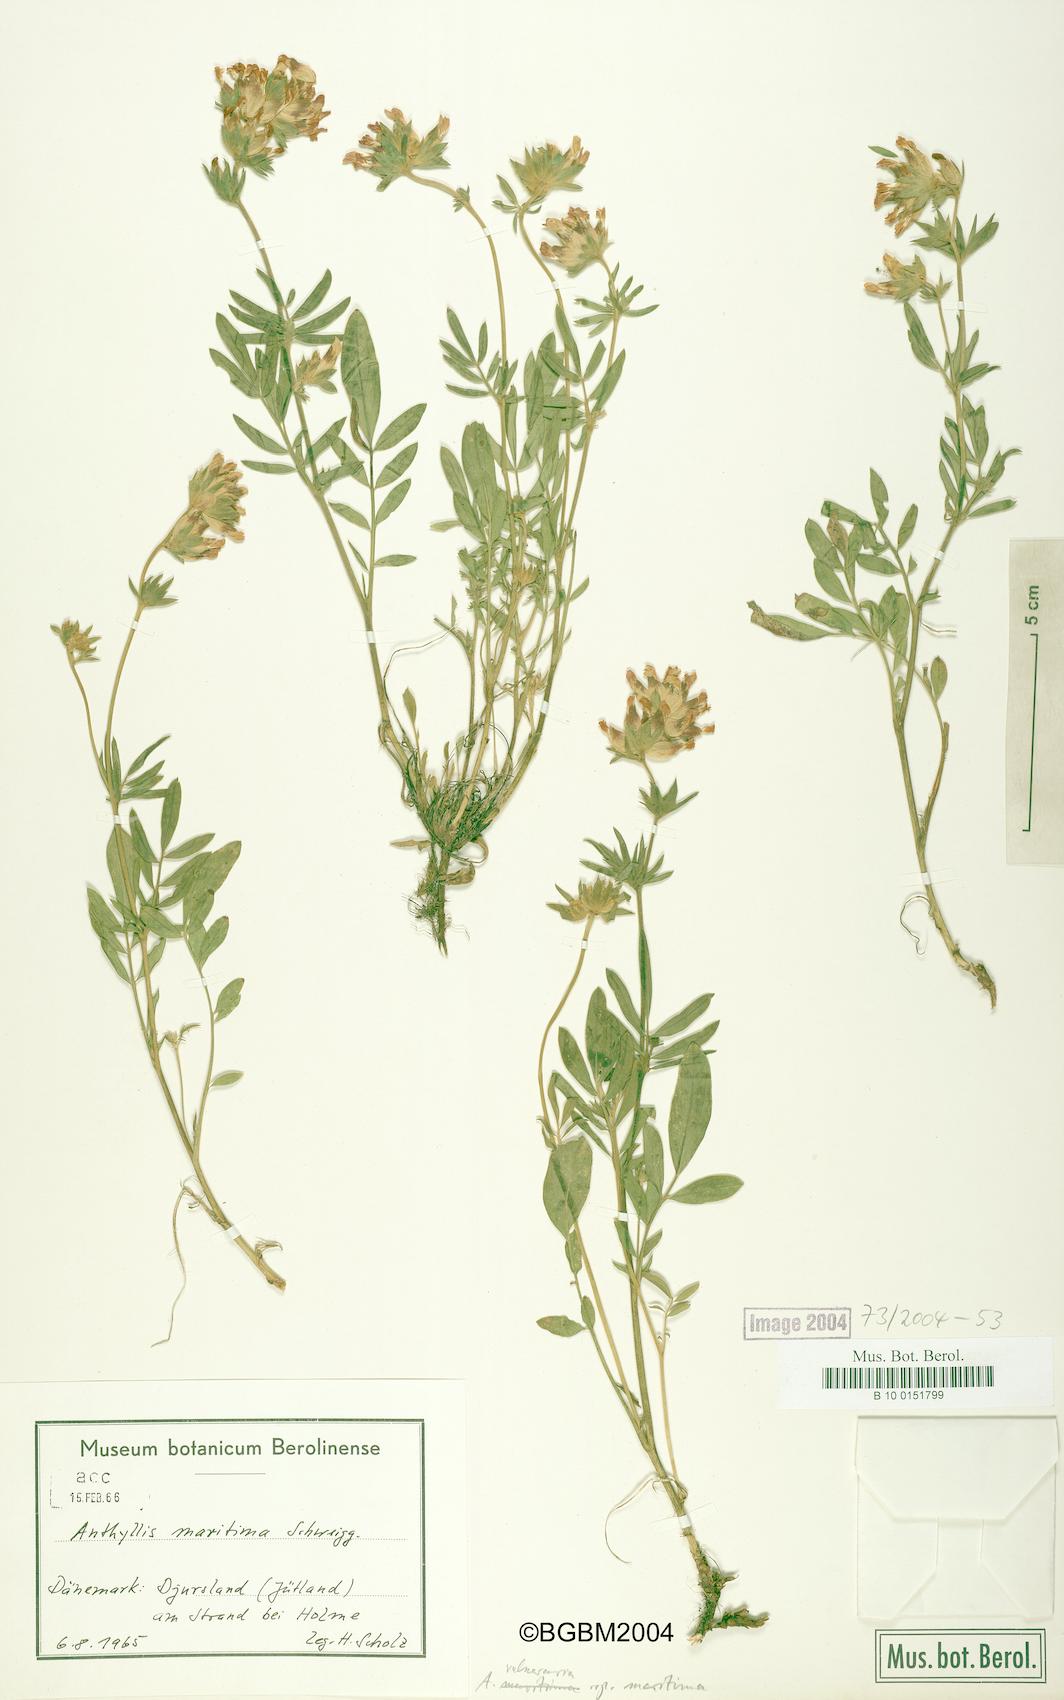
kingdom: Plantae
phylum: Tracheophyta
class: Magnoliopsida
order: Fabales
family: Fabaceae
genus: Anthyllis
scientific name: Anthyllis vulneraria
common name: Kidney vetch
